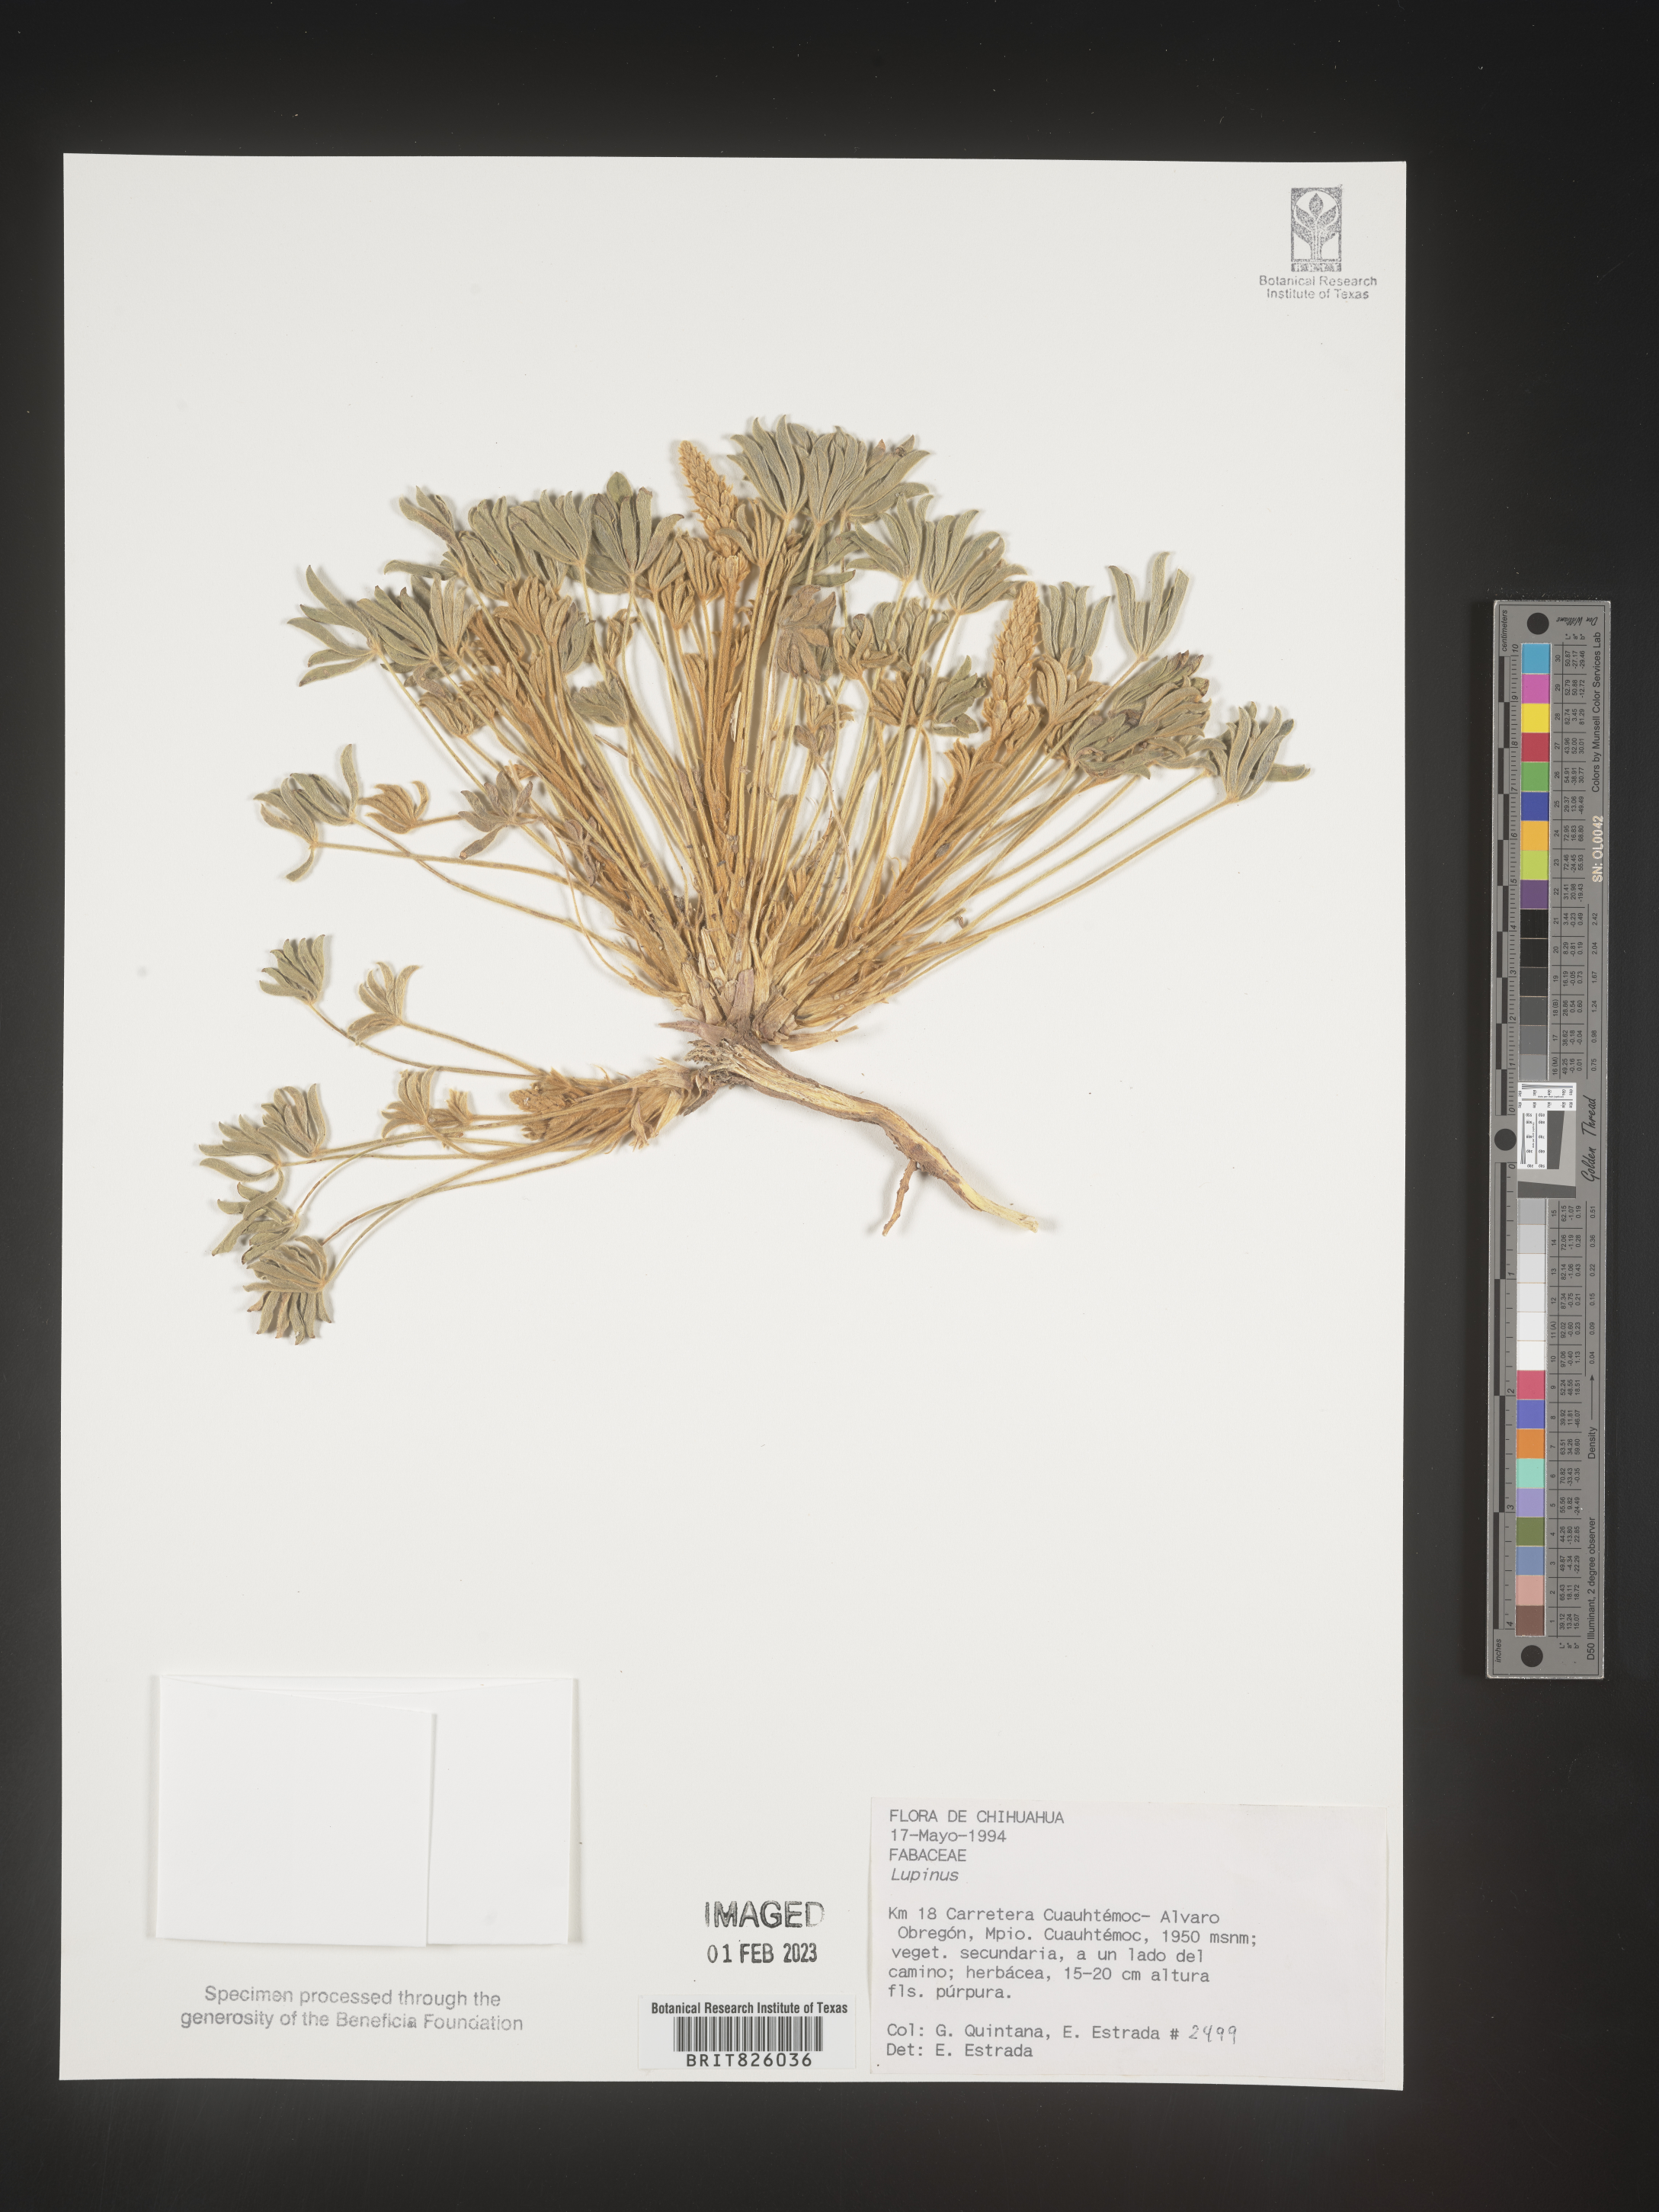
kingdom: Plantae
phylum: Tracheophyta
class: Magnoliopsida
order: Fabales
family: Fabaceae
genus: Lupinus
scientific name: Lupinus
